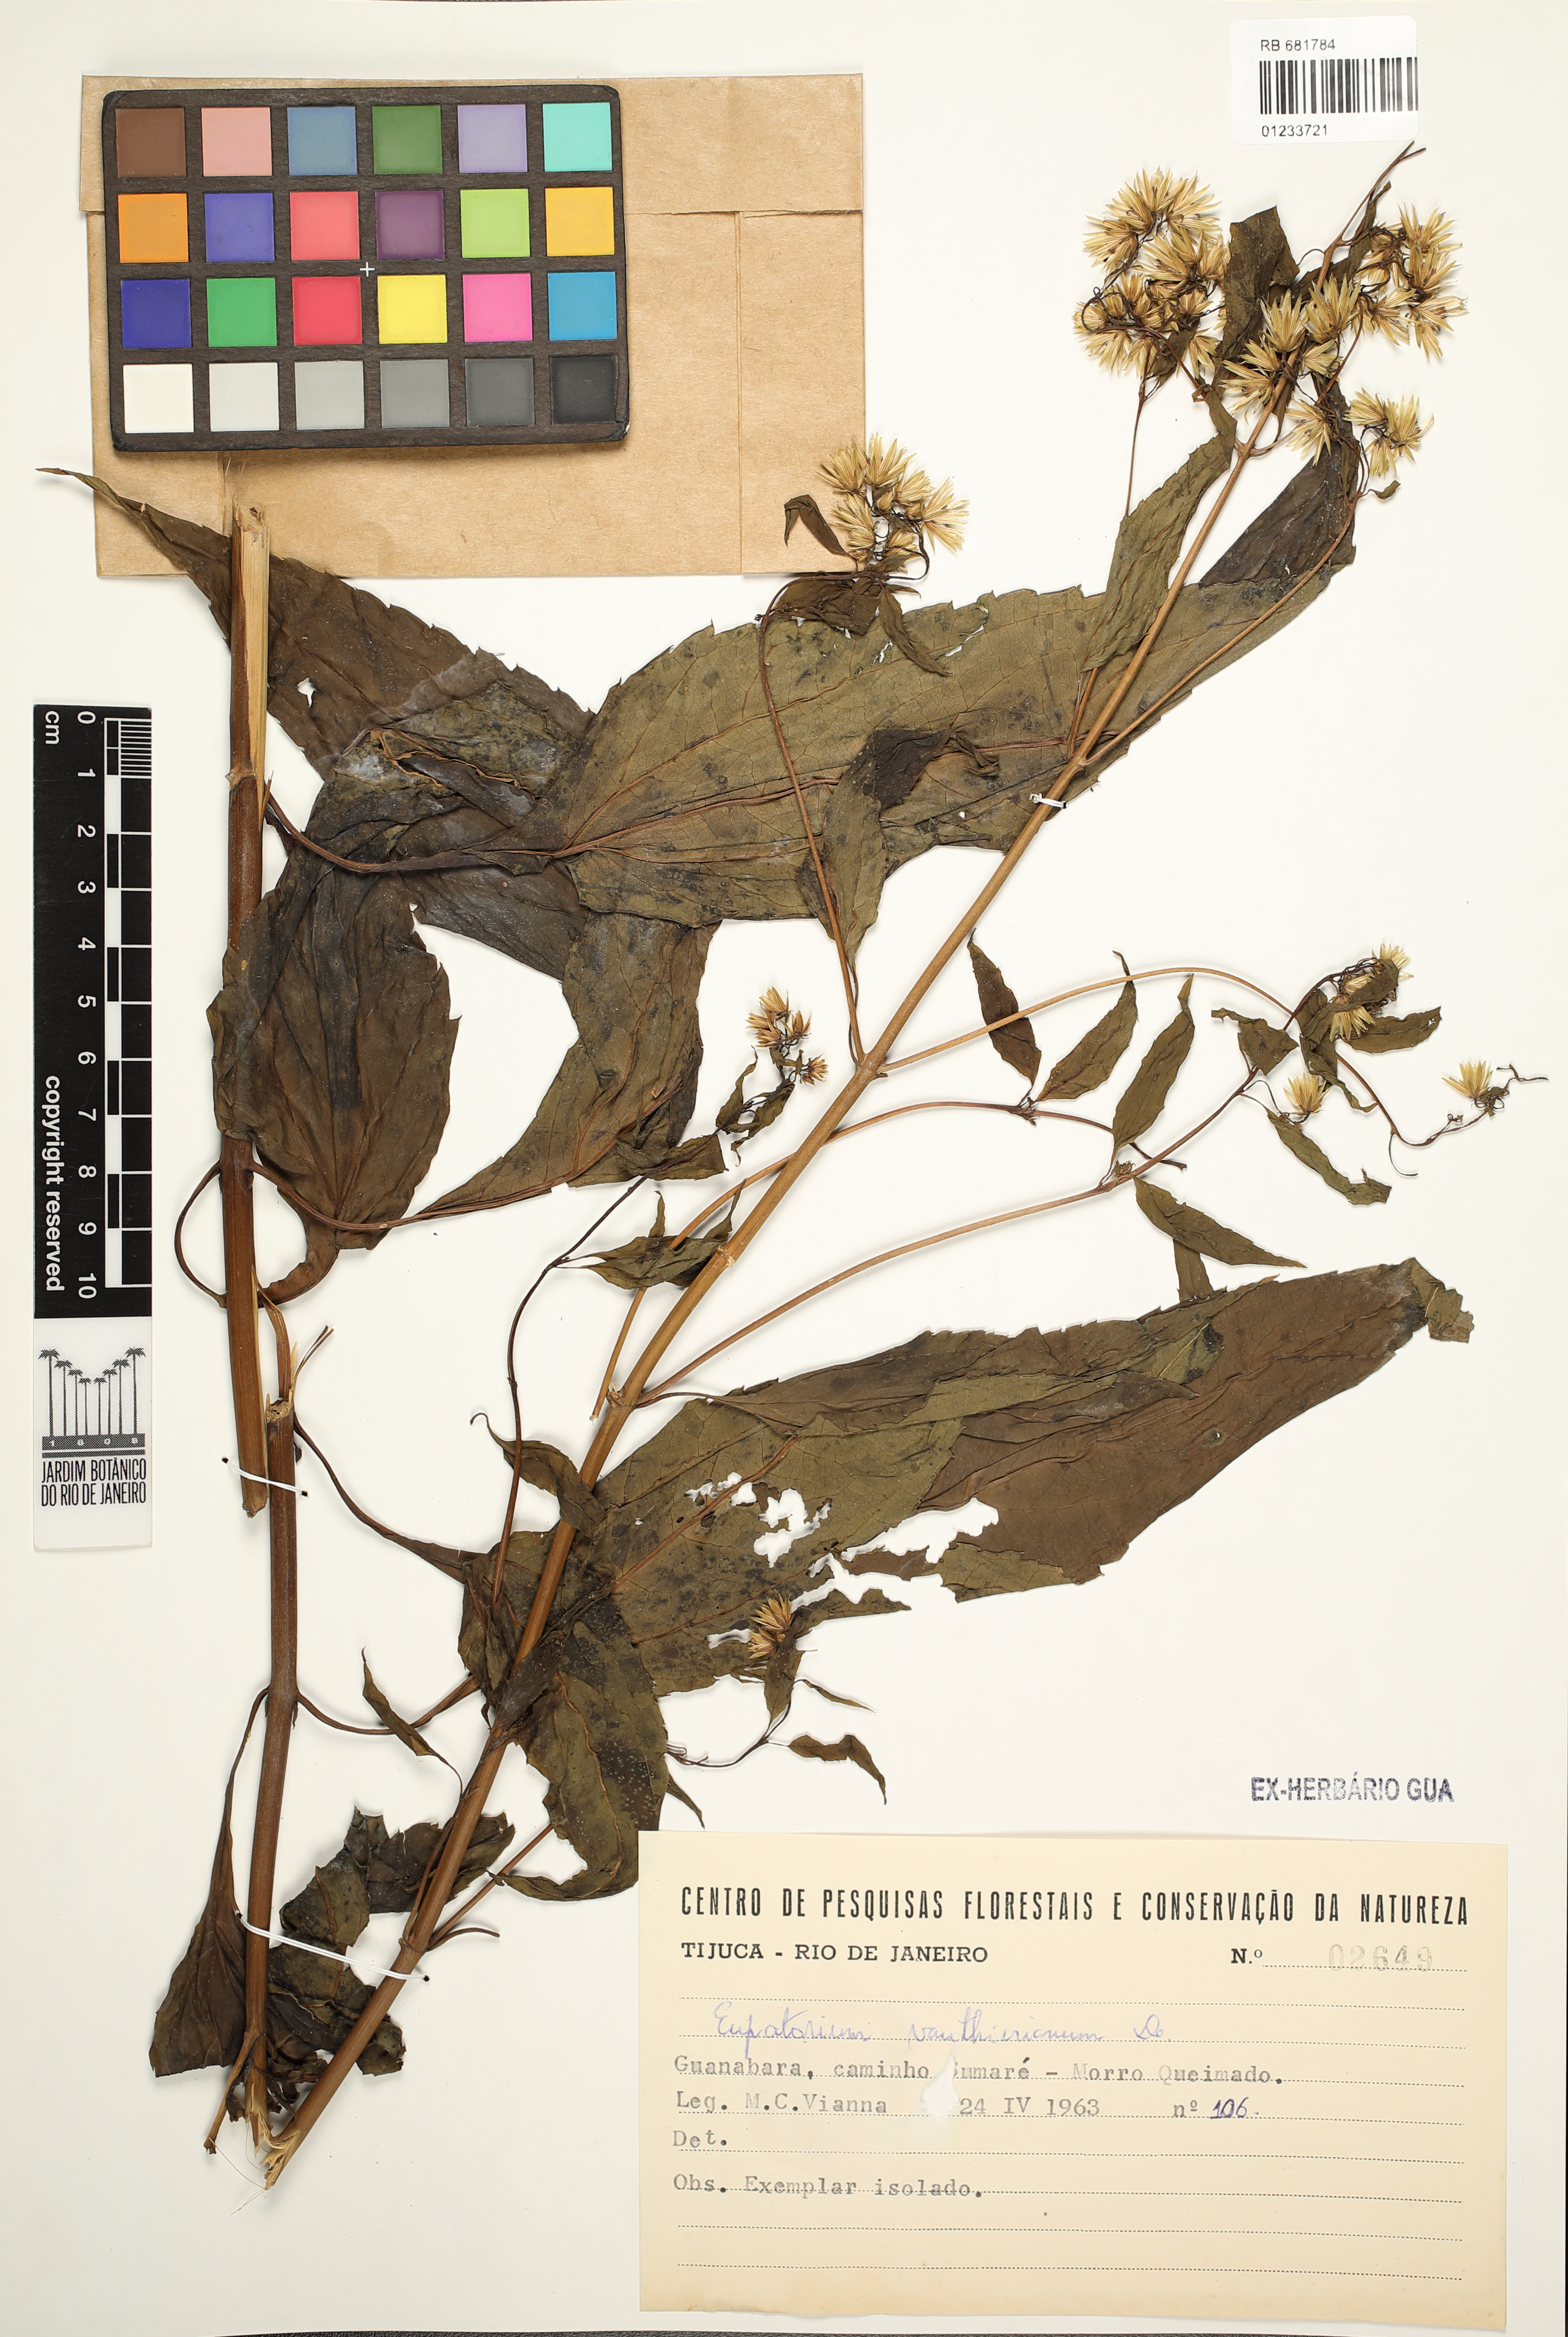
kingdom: Plantae
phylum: Tracheophyta
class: Magnoliopsida
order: Asterales
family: Asteraceae
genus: Heterocondylus
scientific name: Heterocondylus alatus
